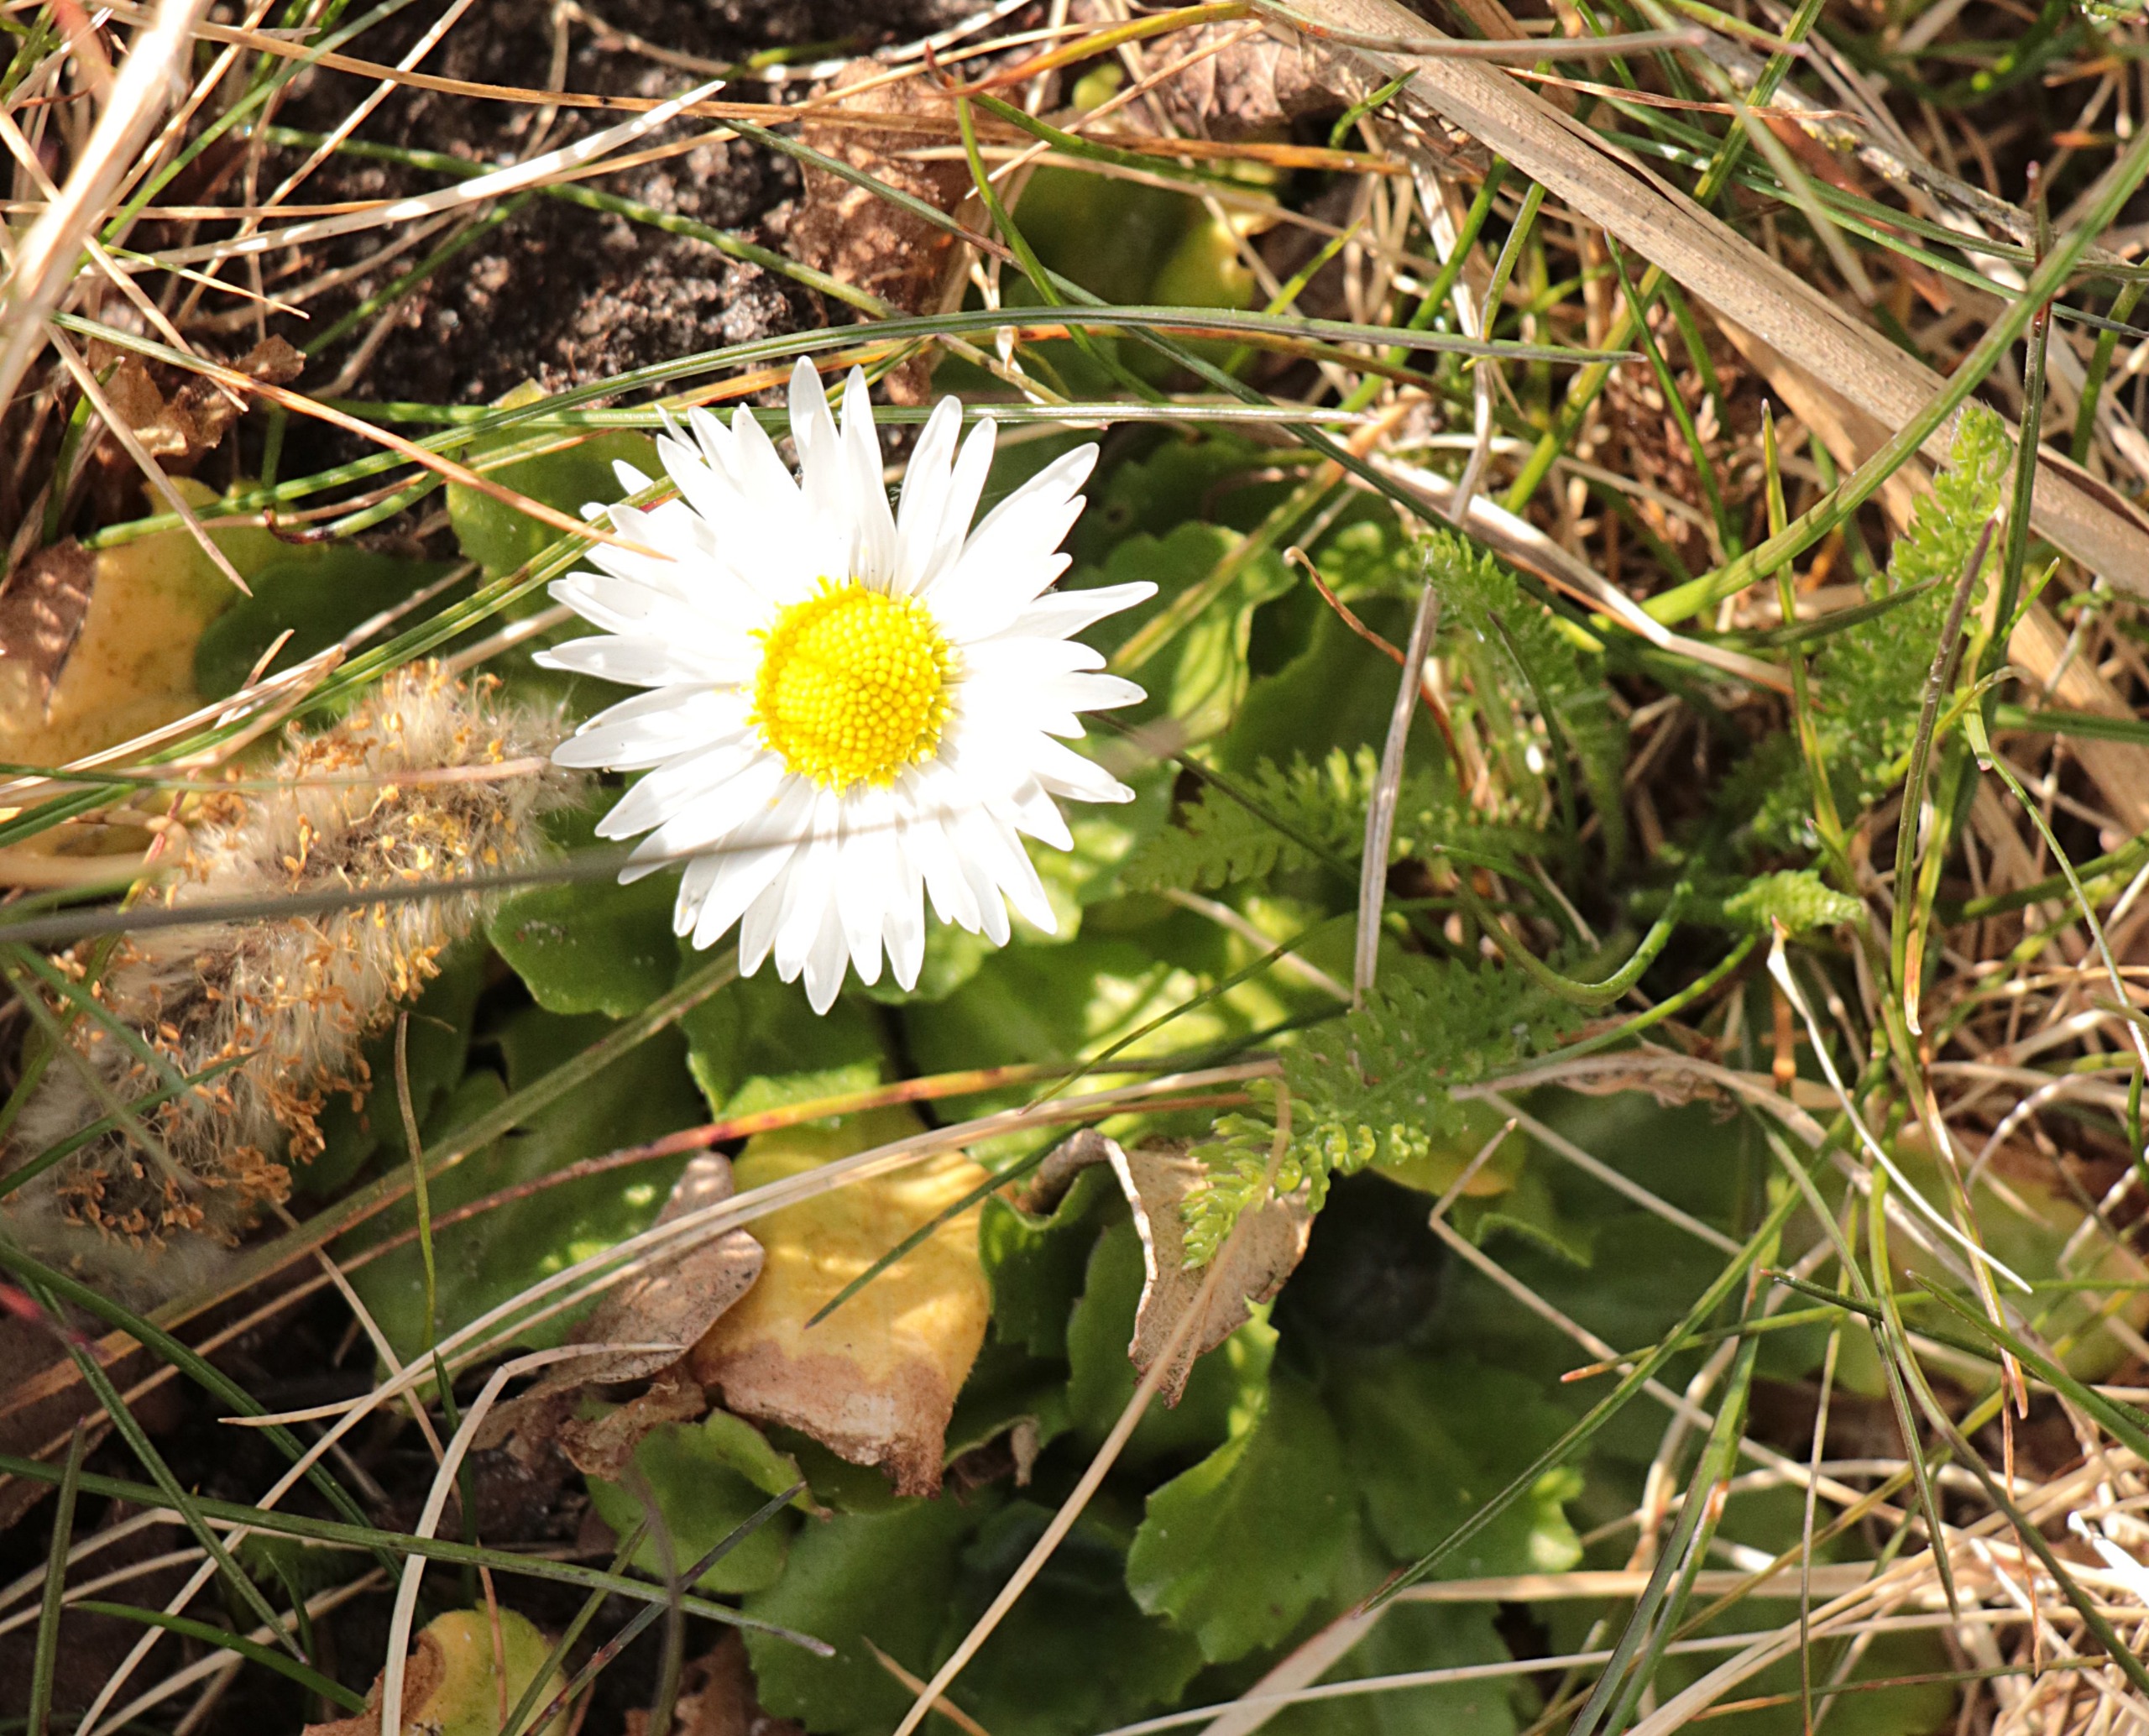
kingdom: Plantae
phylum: Tracheophyta
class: Magnoliopsida
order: Asterales
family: Asteraceae
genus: Bellis
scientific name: Bellis perennis
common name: Tusindfryd
